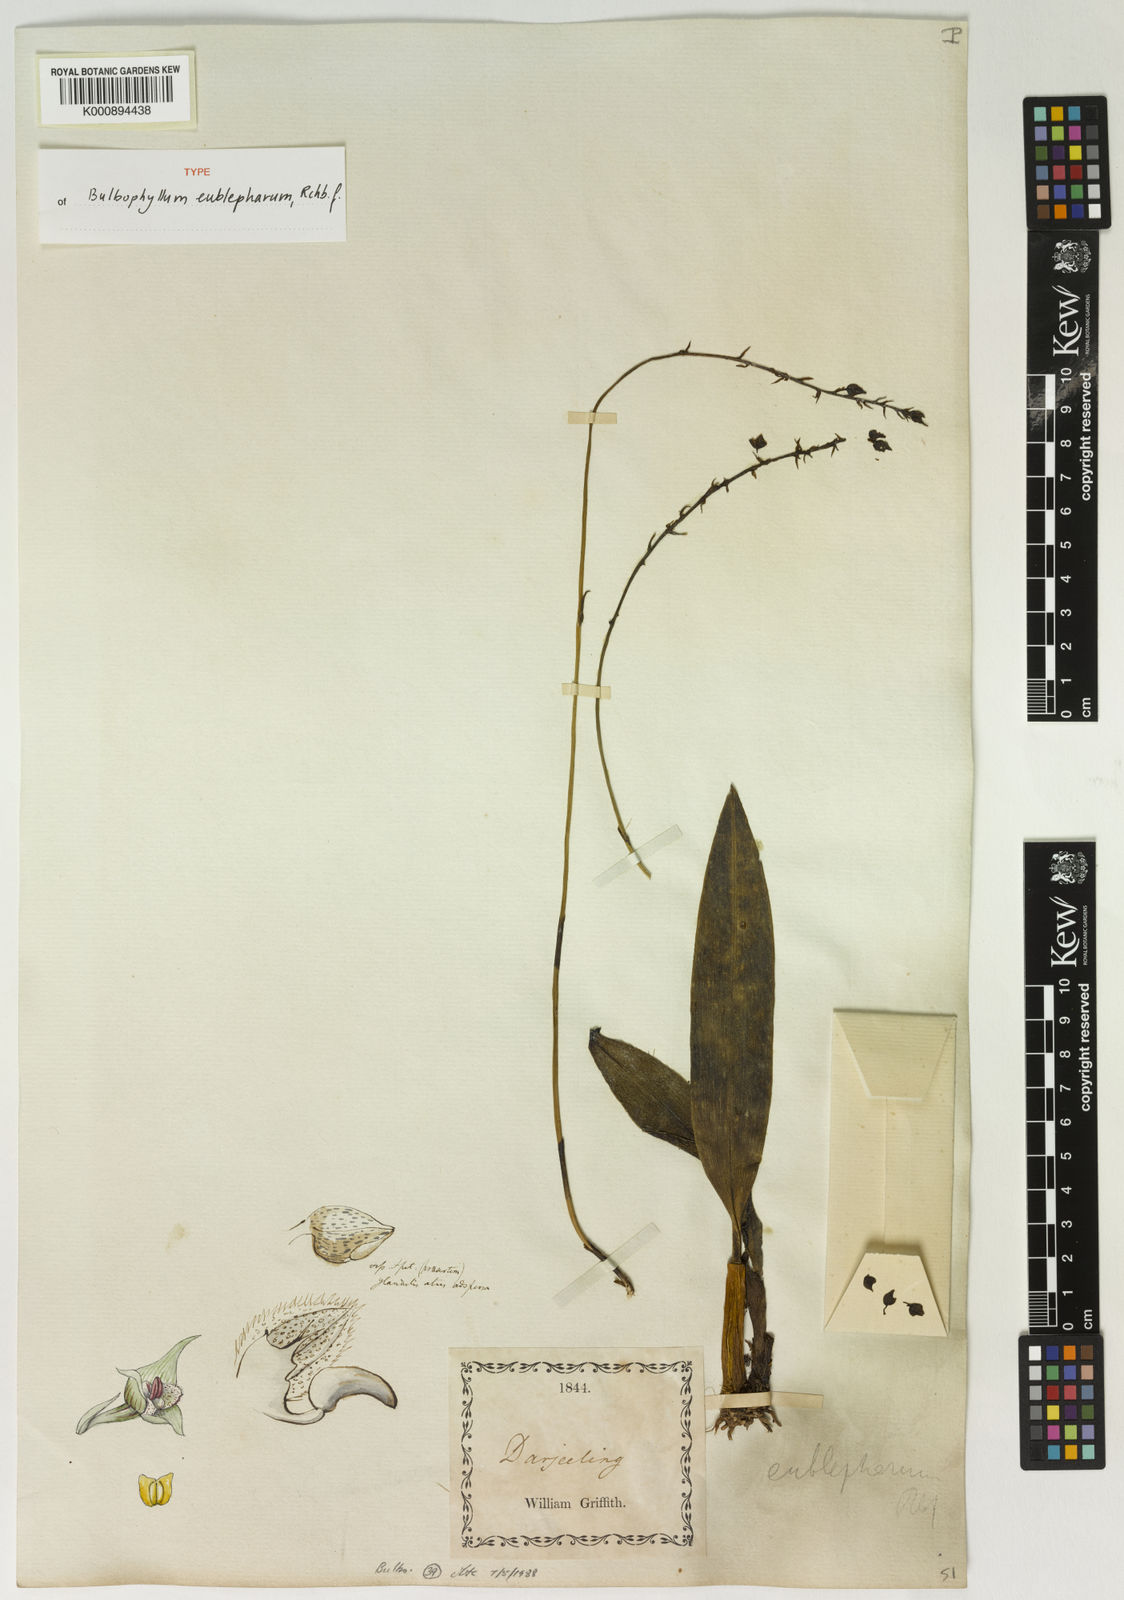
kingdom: Plantae
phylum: Tracheophyta
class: Liliopsida
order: Asparagales
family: Orchidaceae
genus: Bulbophyllum
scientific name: Bulbophyllum eublepharum
